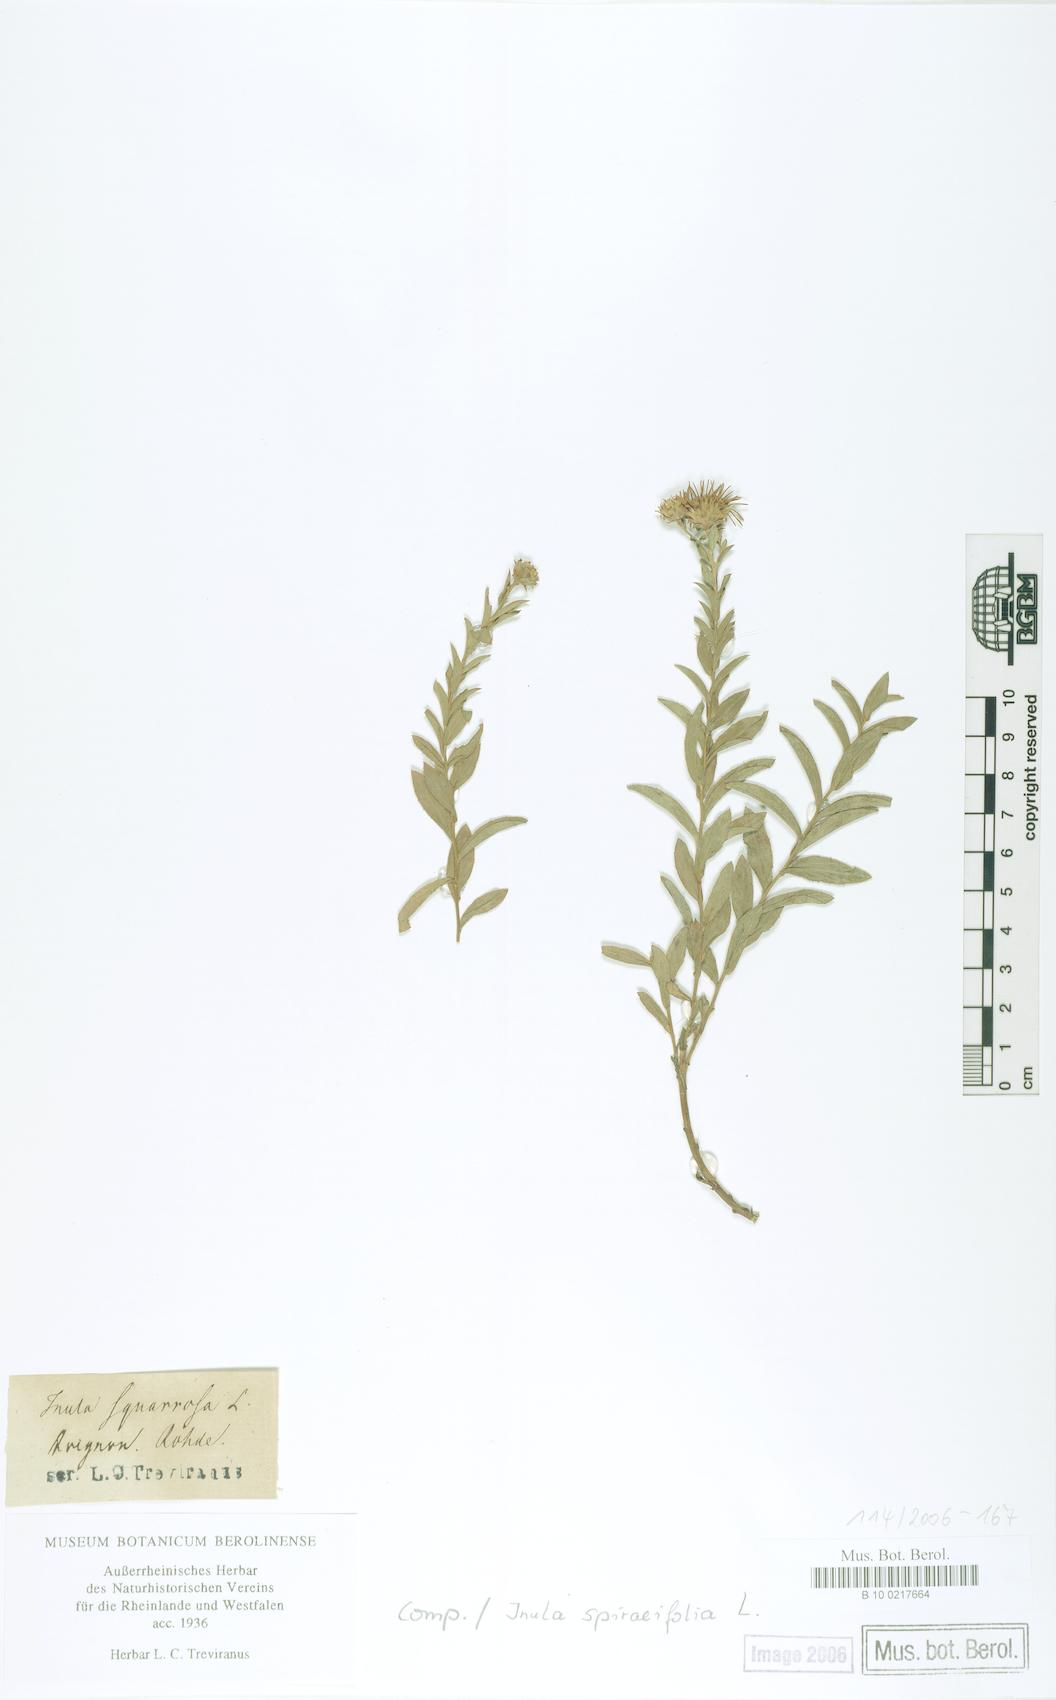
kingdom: Plantae
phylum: Tracheophyta
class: Magnoliopsida
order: Asterales
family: Asteraceae
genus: Pentanema
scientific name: Pentanema spiraeifolium
